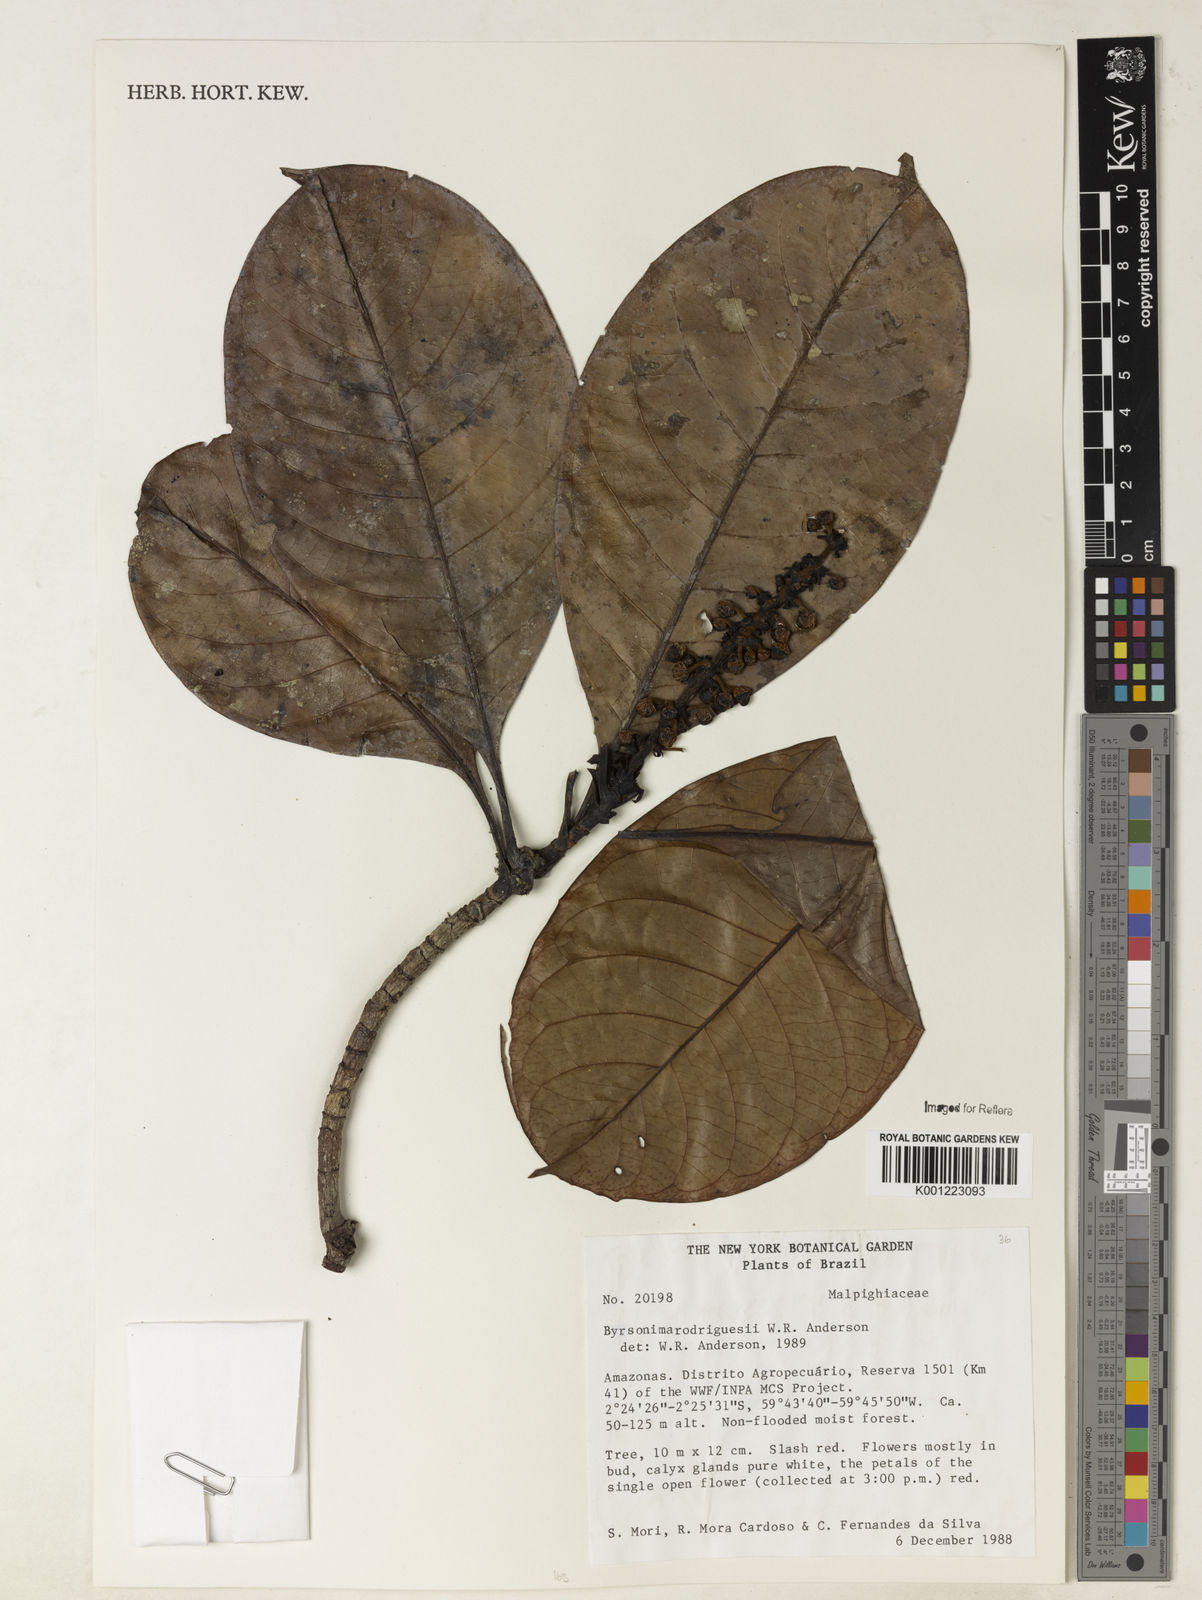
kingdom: Plantae
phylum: Tracheophyta
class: Magnoliopsida
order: Malpighiales
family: Malpighiaceae
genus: Byrsonima
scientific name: Byrsonima rodriguesii
